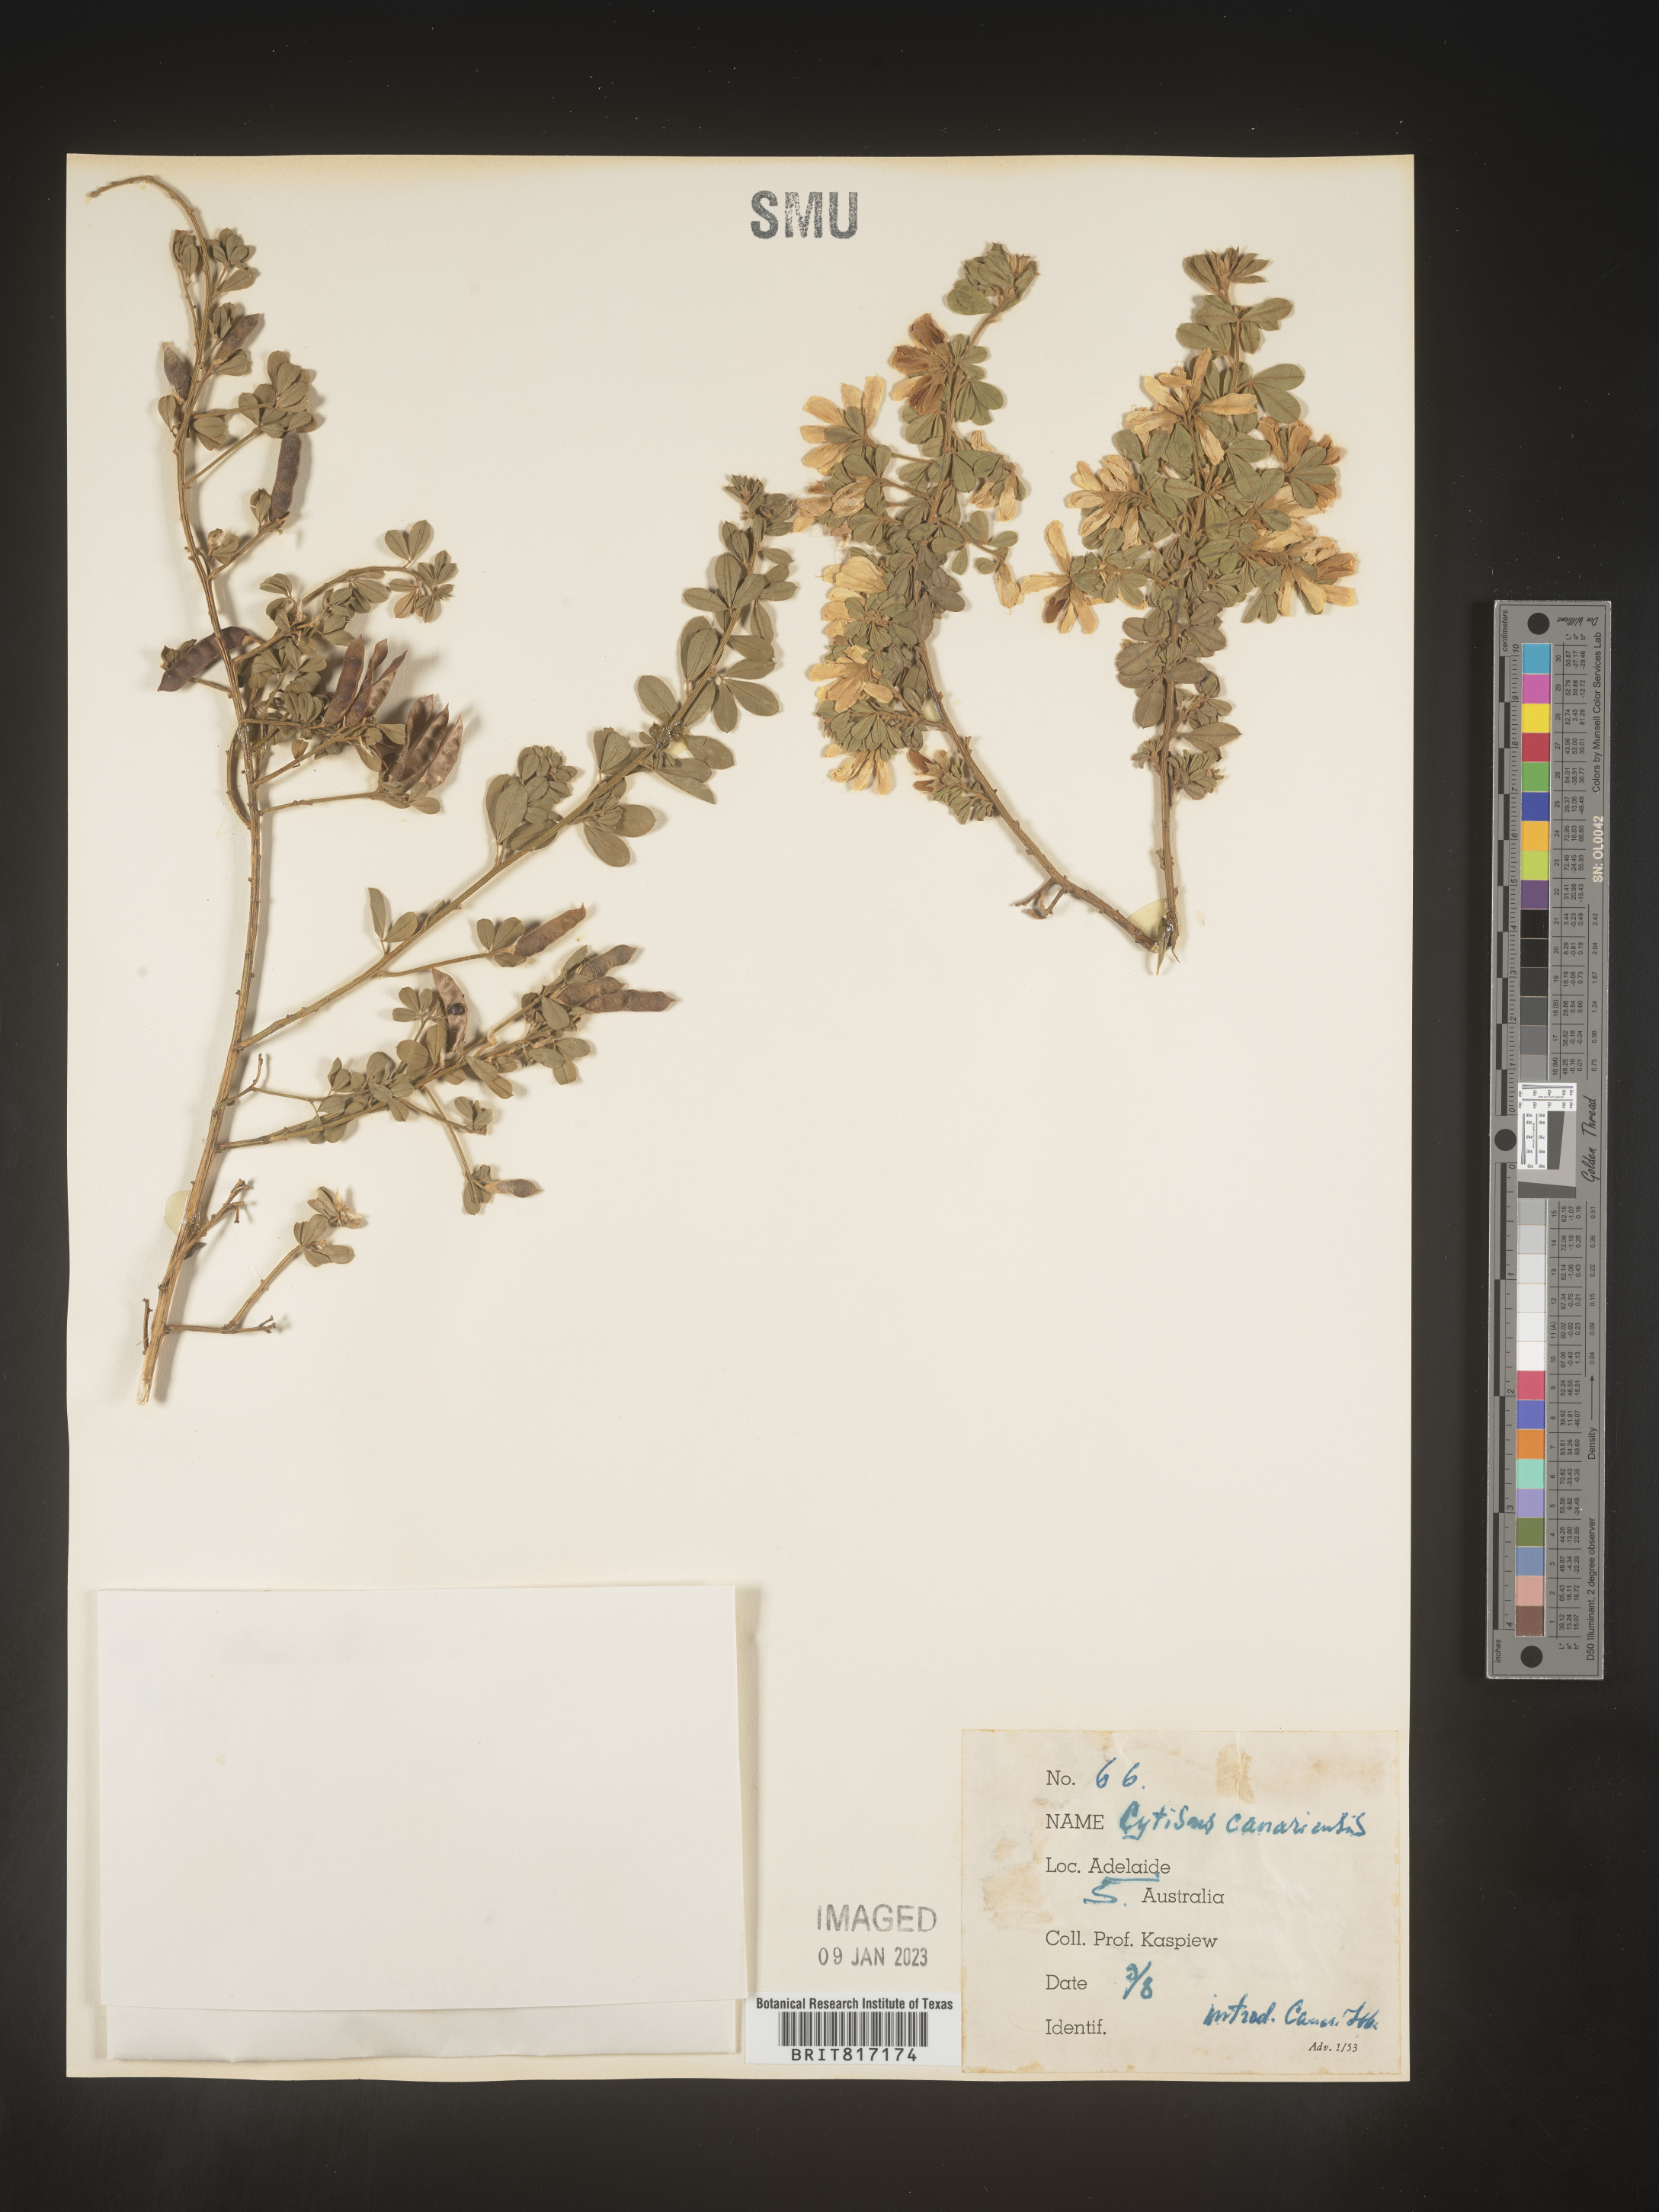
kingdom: Plantae
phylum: Tracheophyta
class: Magnoliopsida
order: Fabales
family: Fabaceae
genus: Cytisus
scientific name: Cytisus
